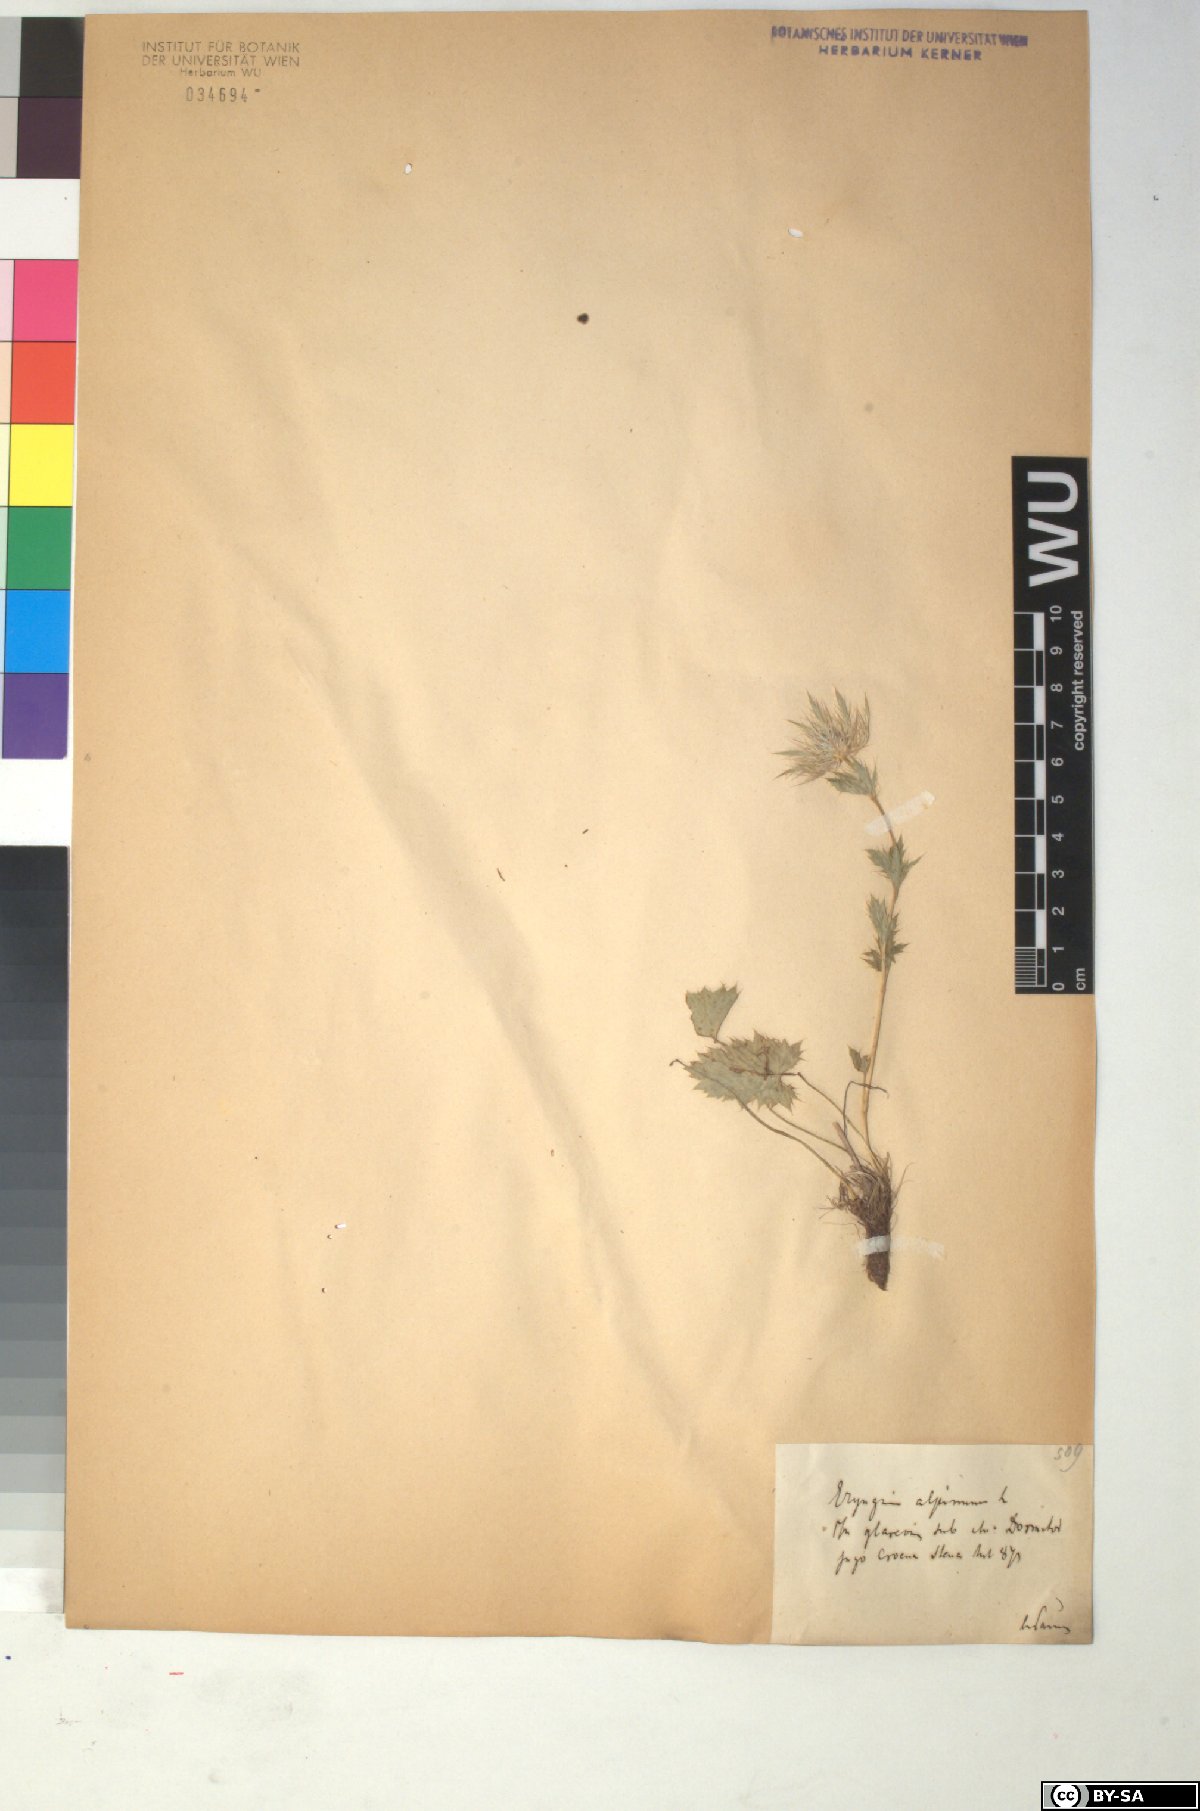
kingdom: Plantae
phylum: Tracheophyta
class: Magnoliopsida
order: Apiales
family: Apiaceae
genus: Eryngium
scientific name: Eryngium alpinum
